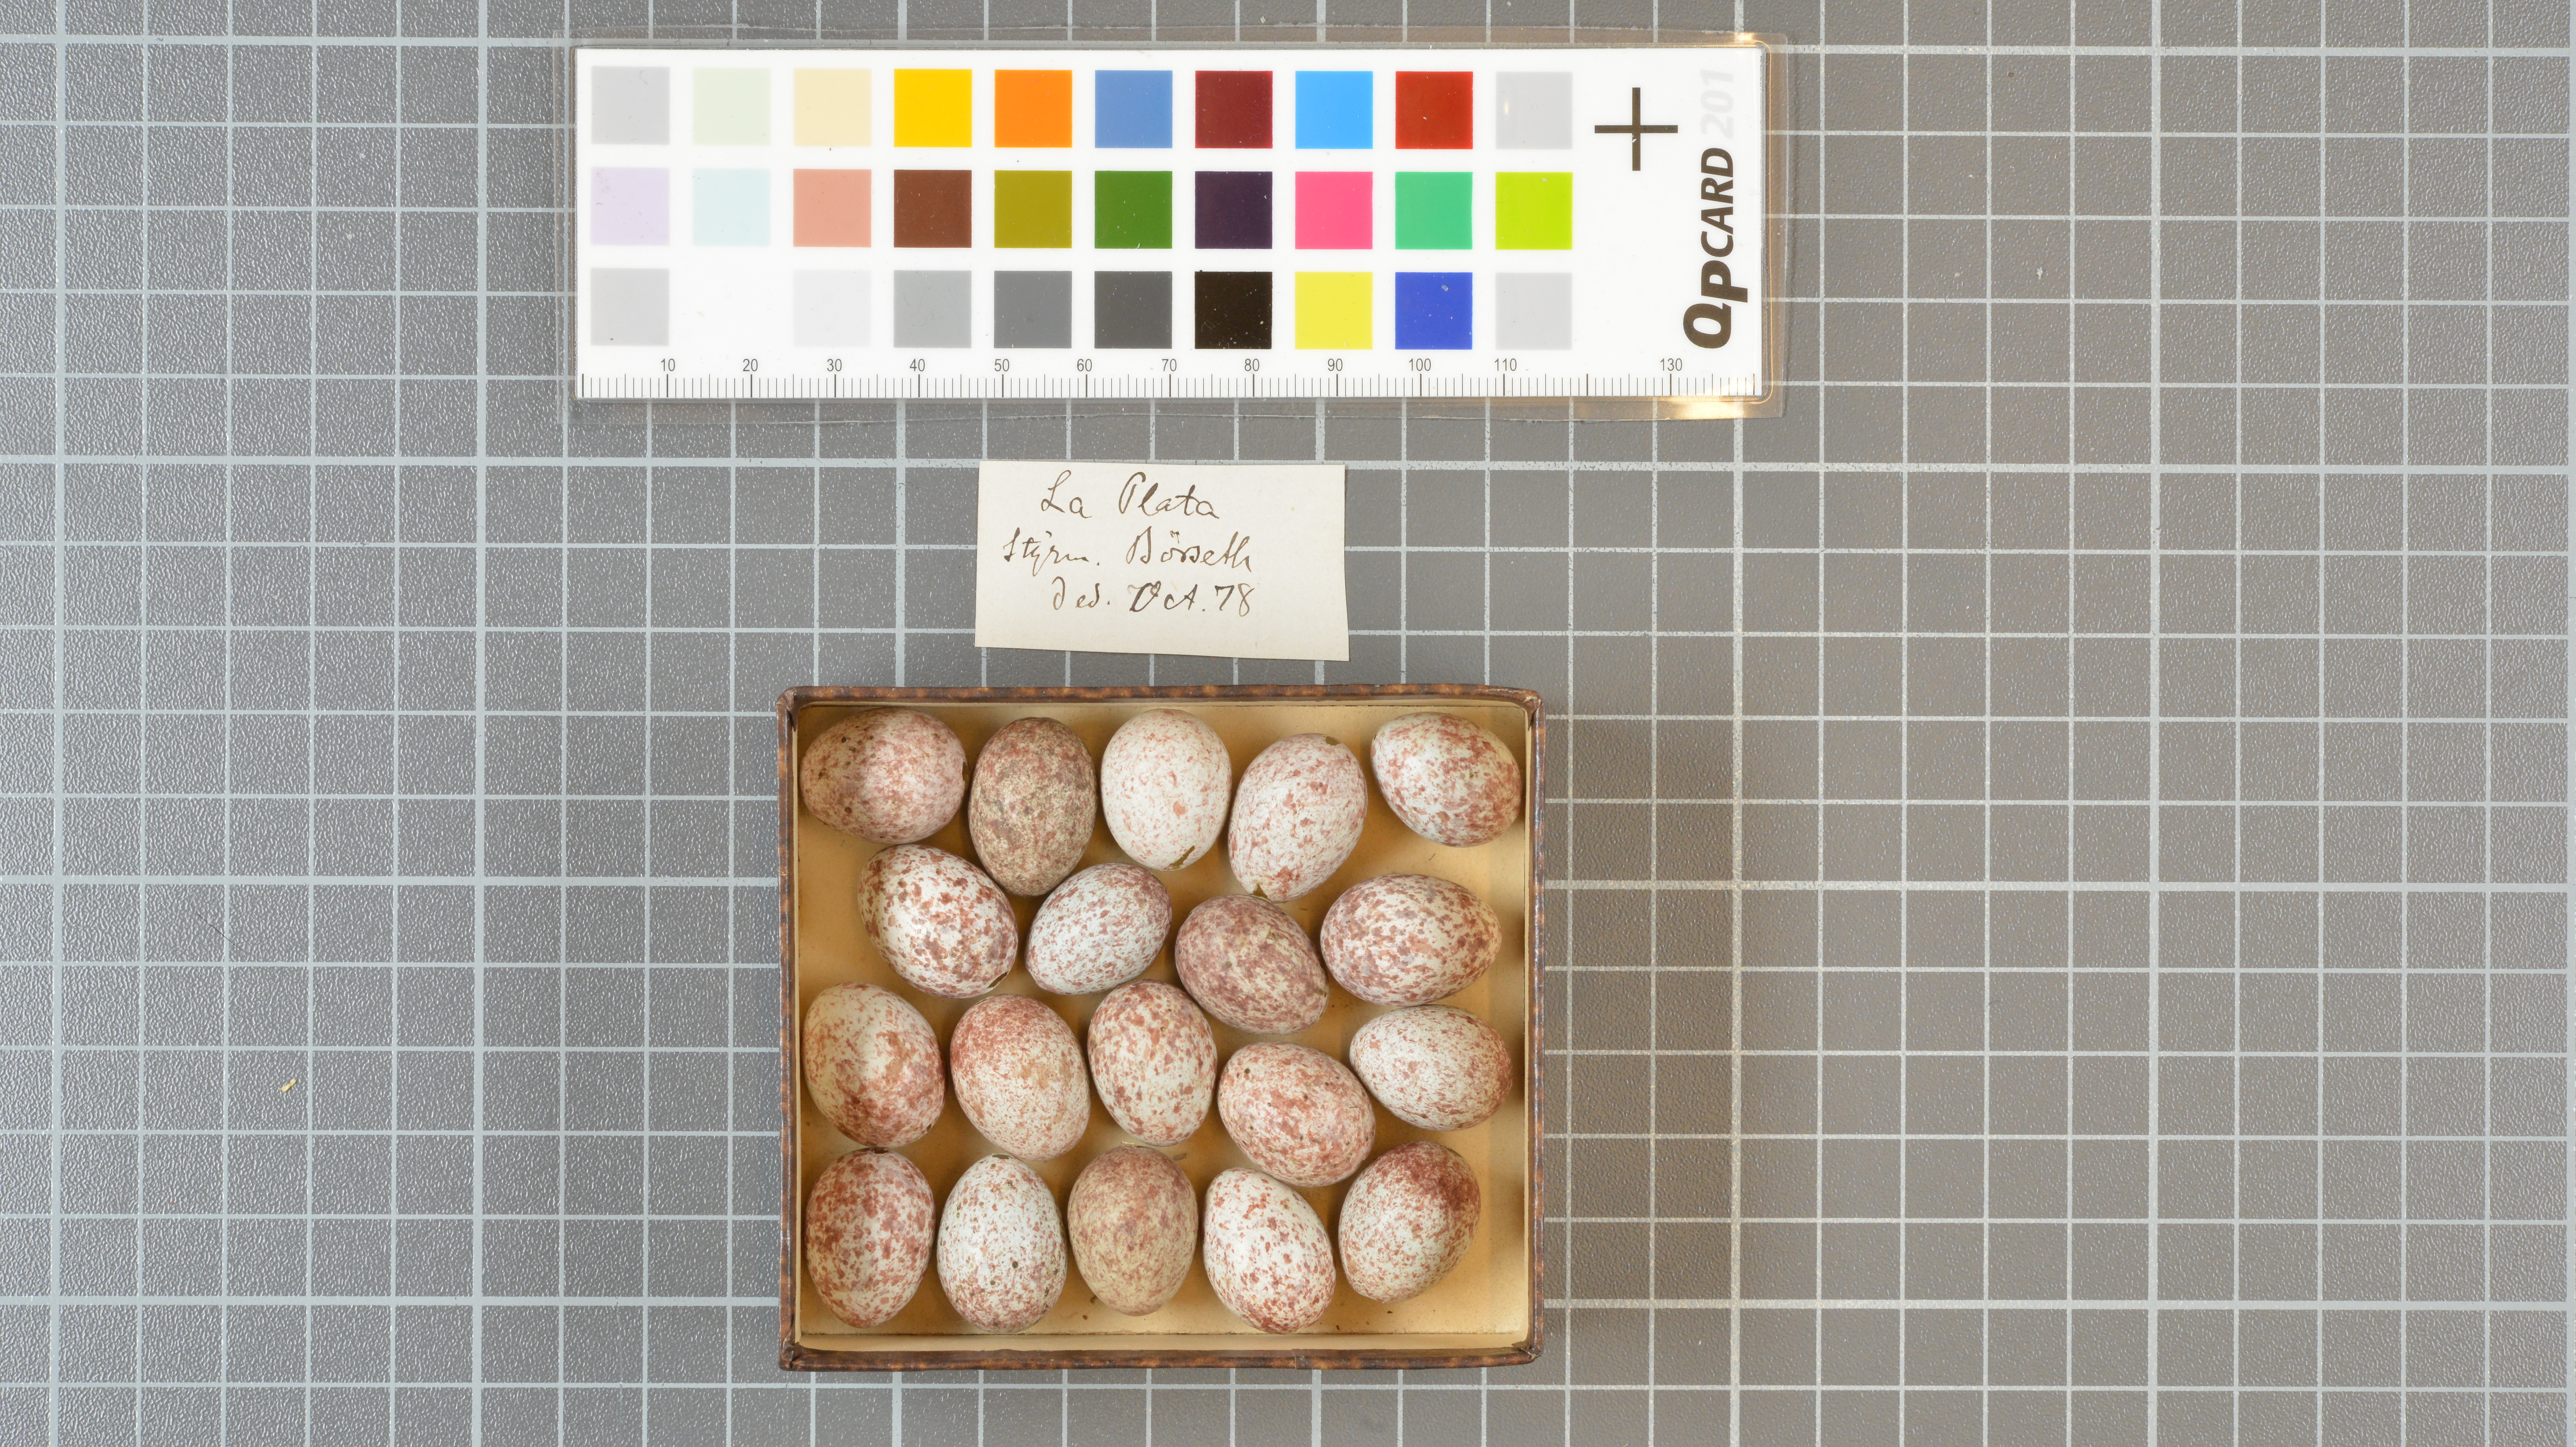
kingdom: Animalia
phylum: Chordata
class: Aves
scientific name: Aves
